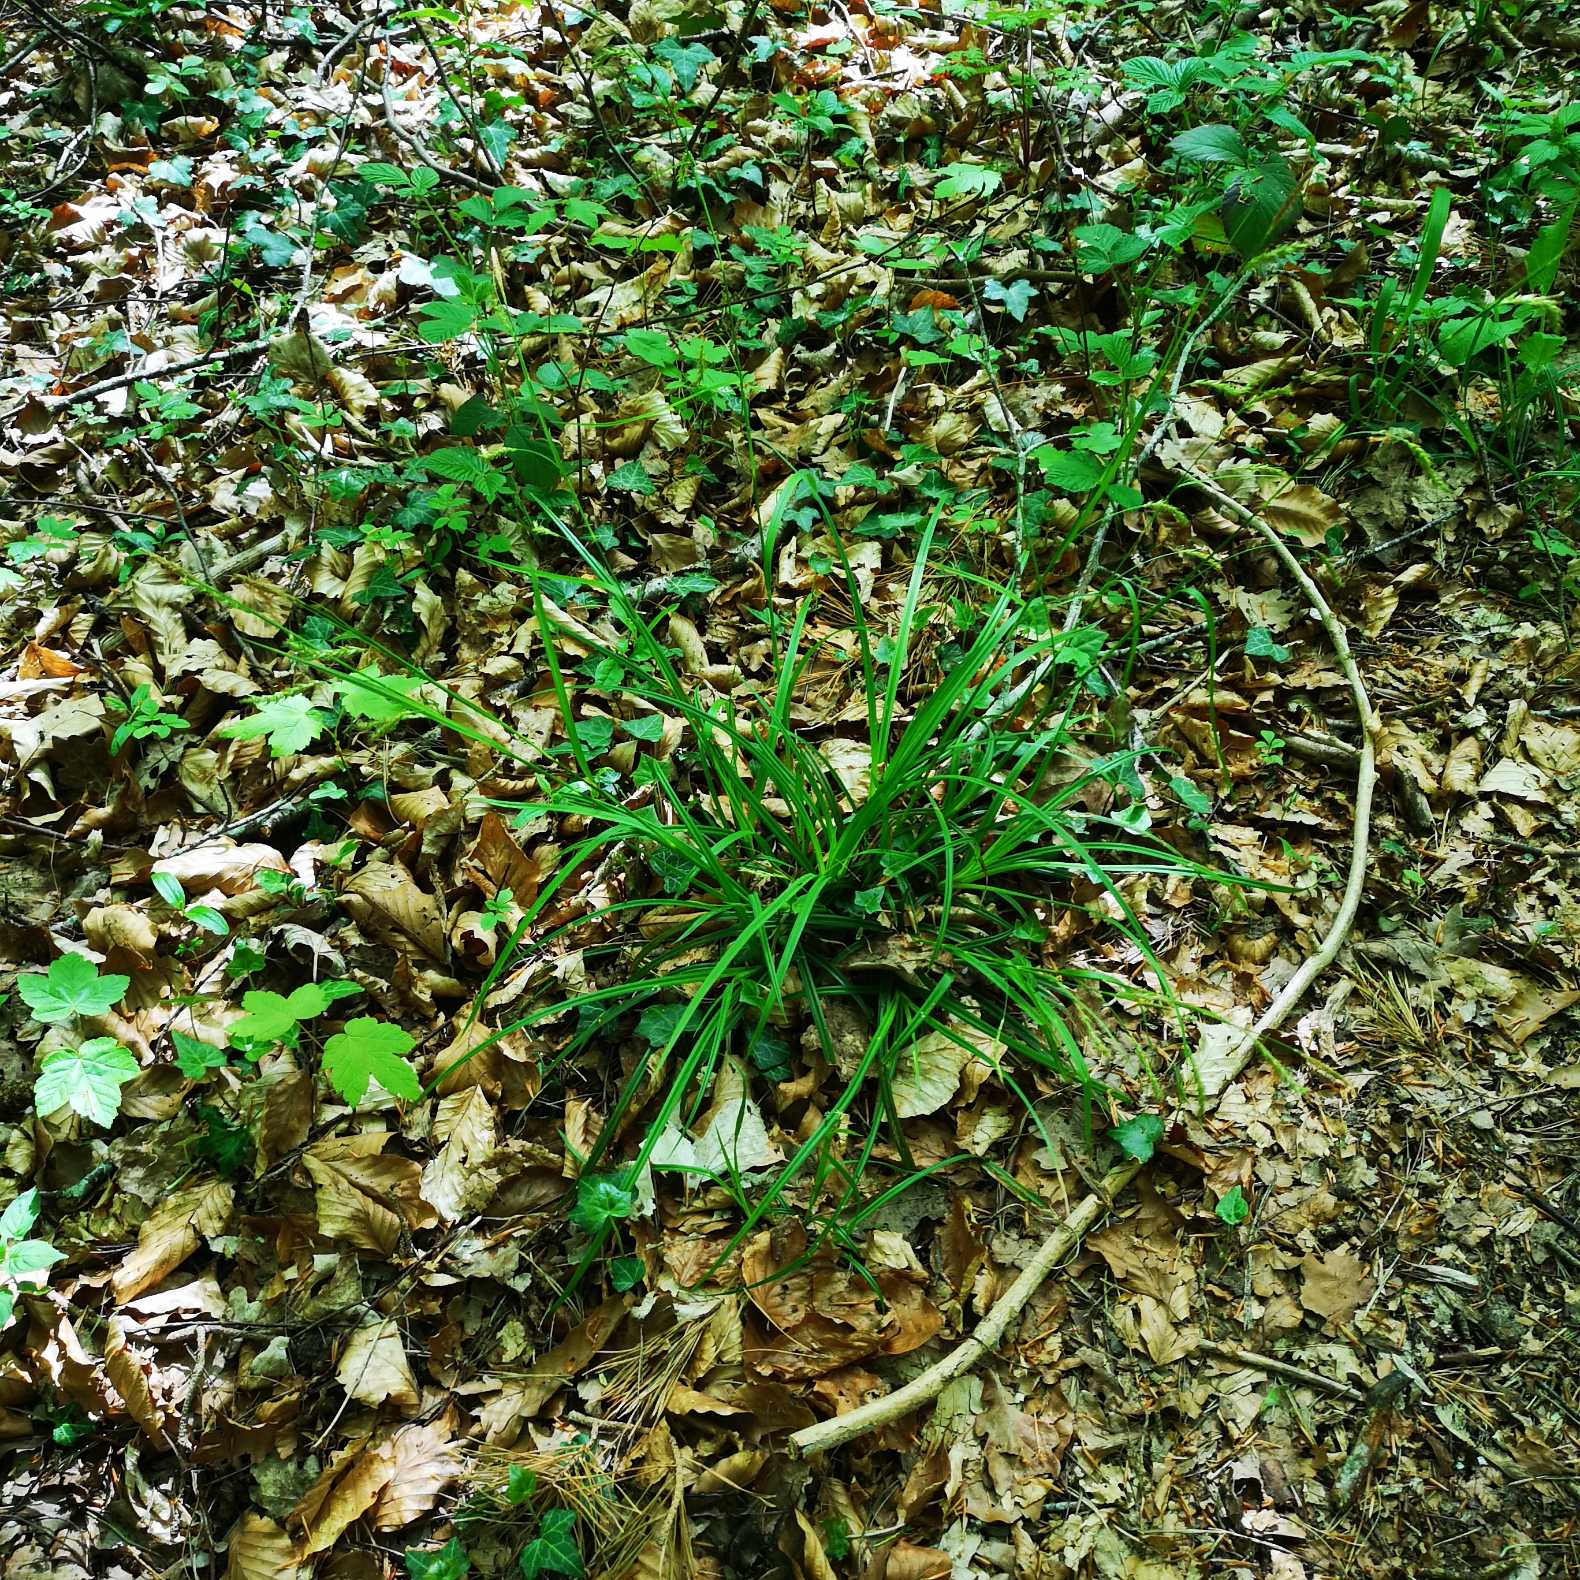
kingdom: Plantae
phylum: Tracheophyta
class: Liliopsida
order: Poales
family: Cyperaceae
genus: Carex
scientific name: Carex sylvatica
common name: Skov-star
